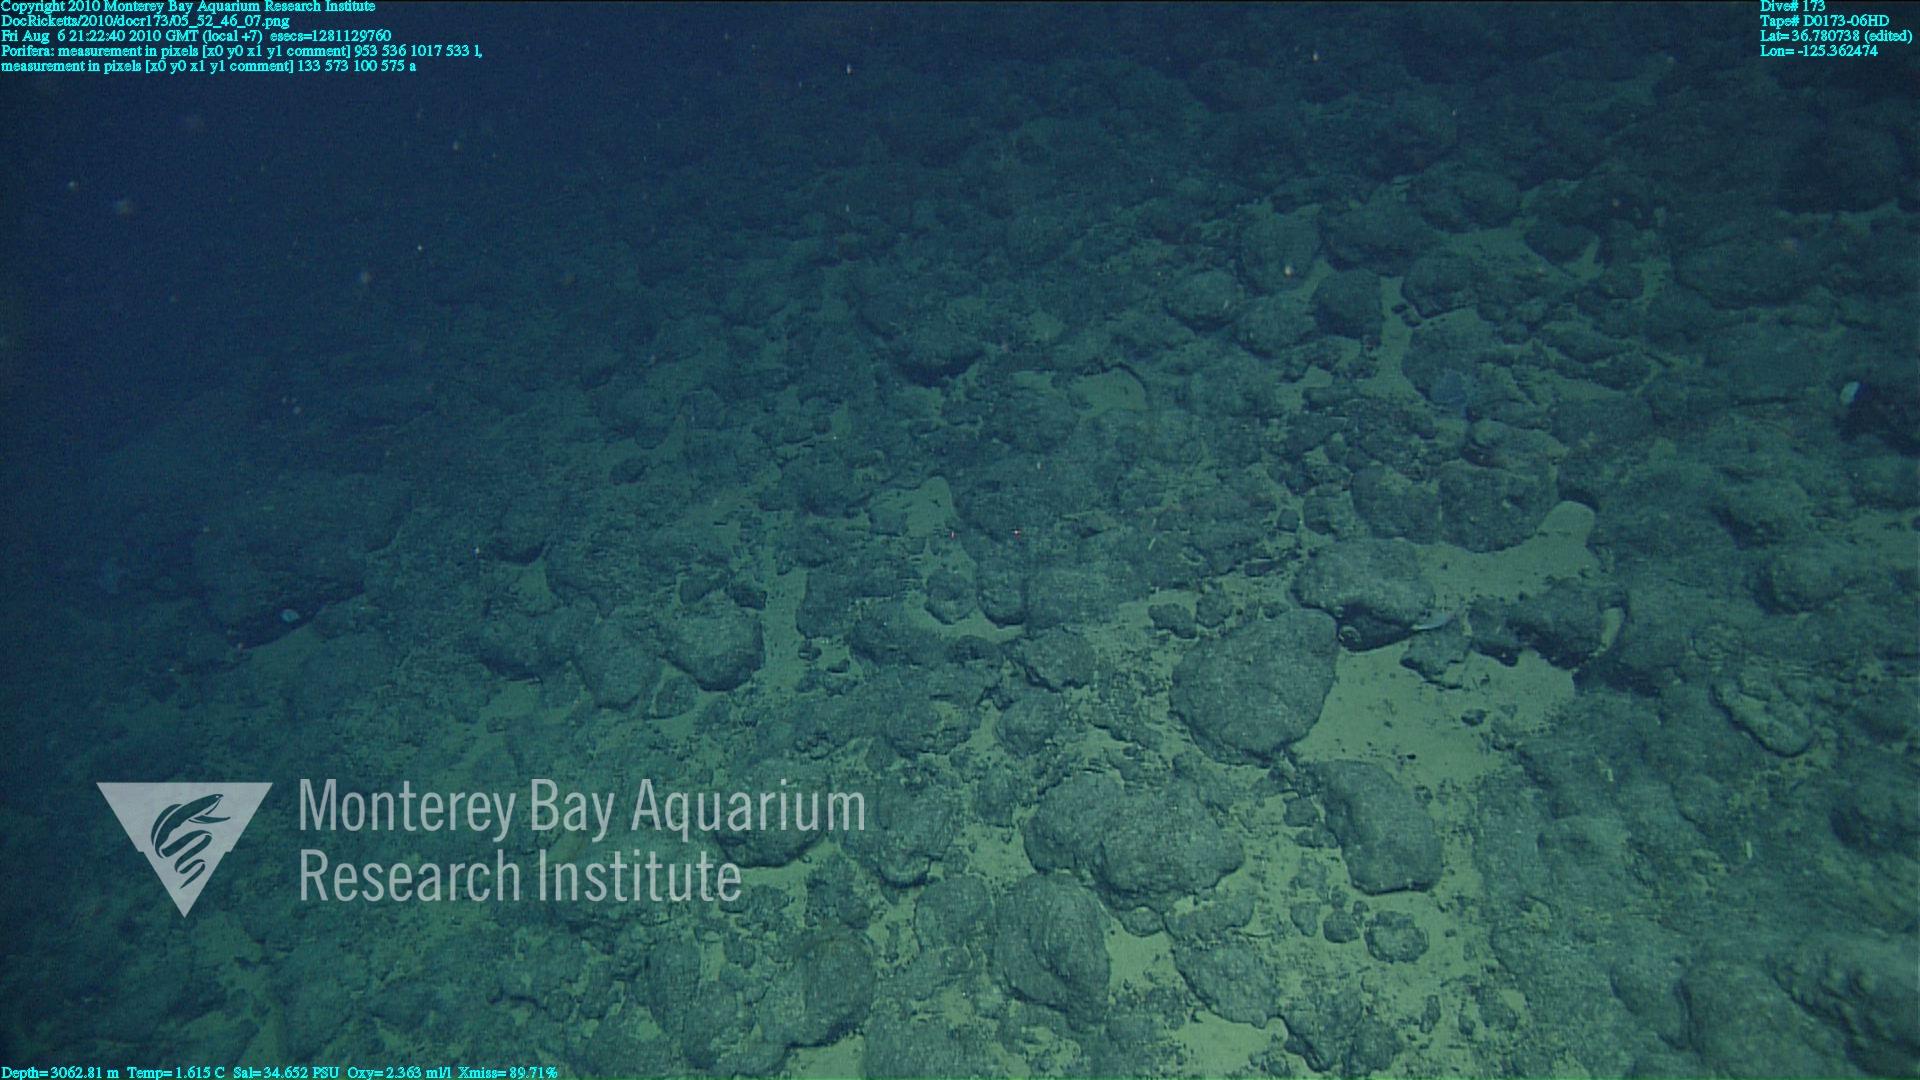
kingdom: Animalia
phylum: Porifera
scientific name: Porifera
